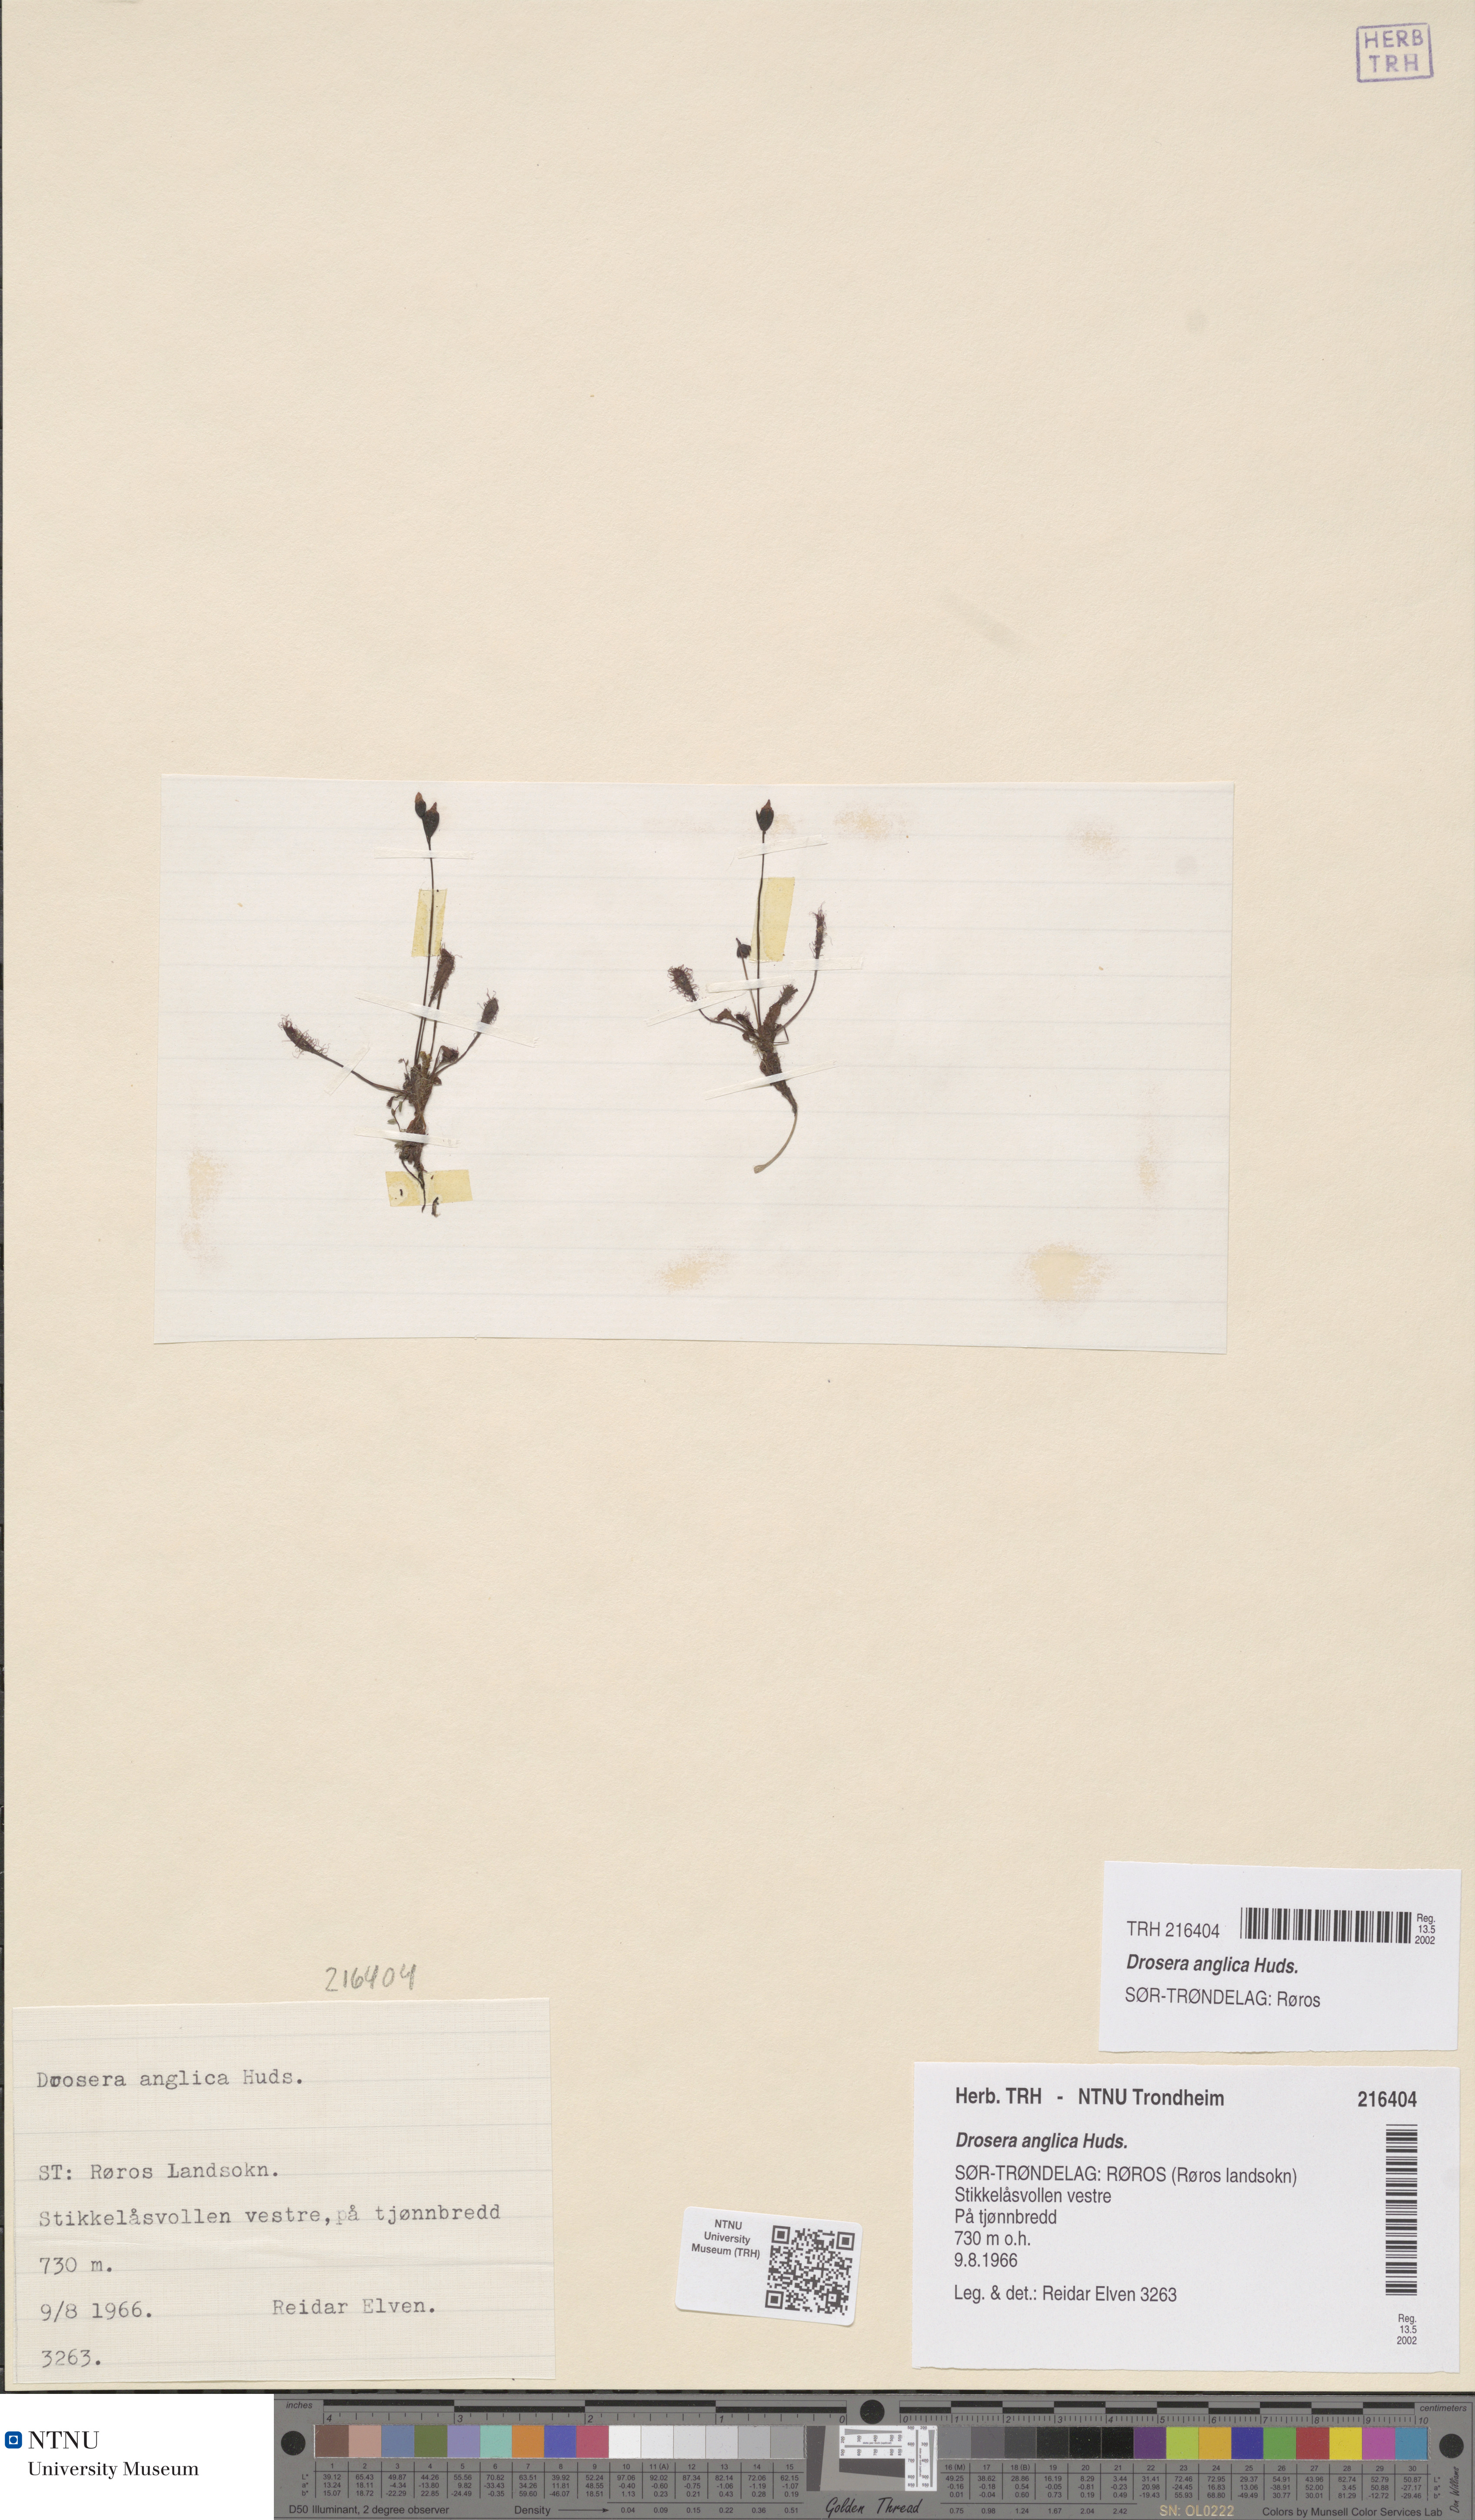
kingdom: Plantae
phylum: Tracheophyta
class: Magnoliopsida
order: Caryophyllales
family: Droseraceae
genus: Drosera
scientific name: Drosera anglica
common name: Great sundew
